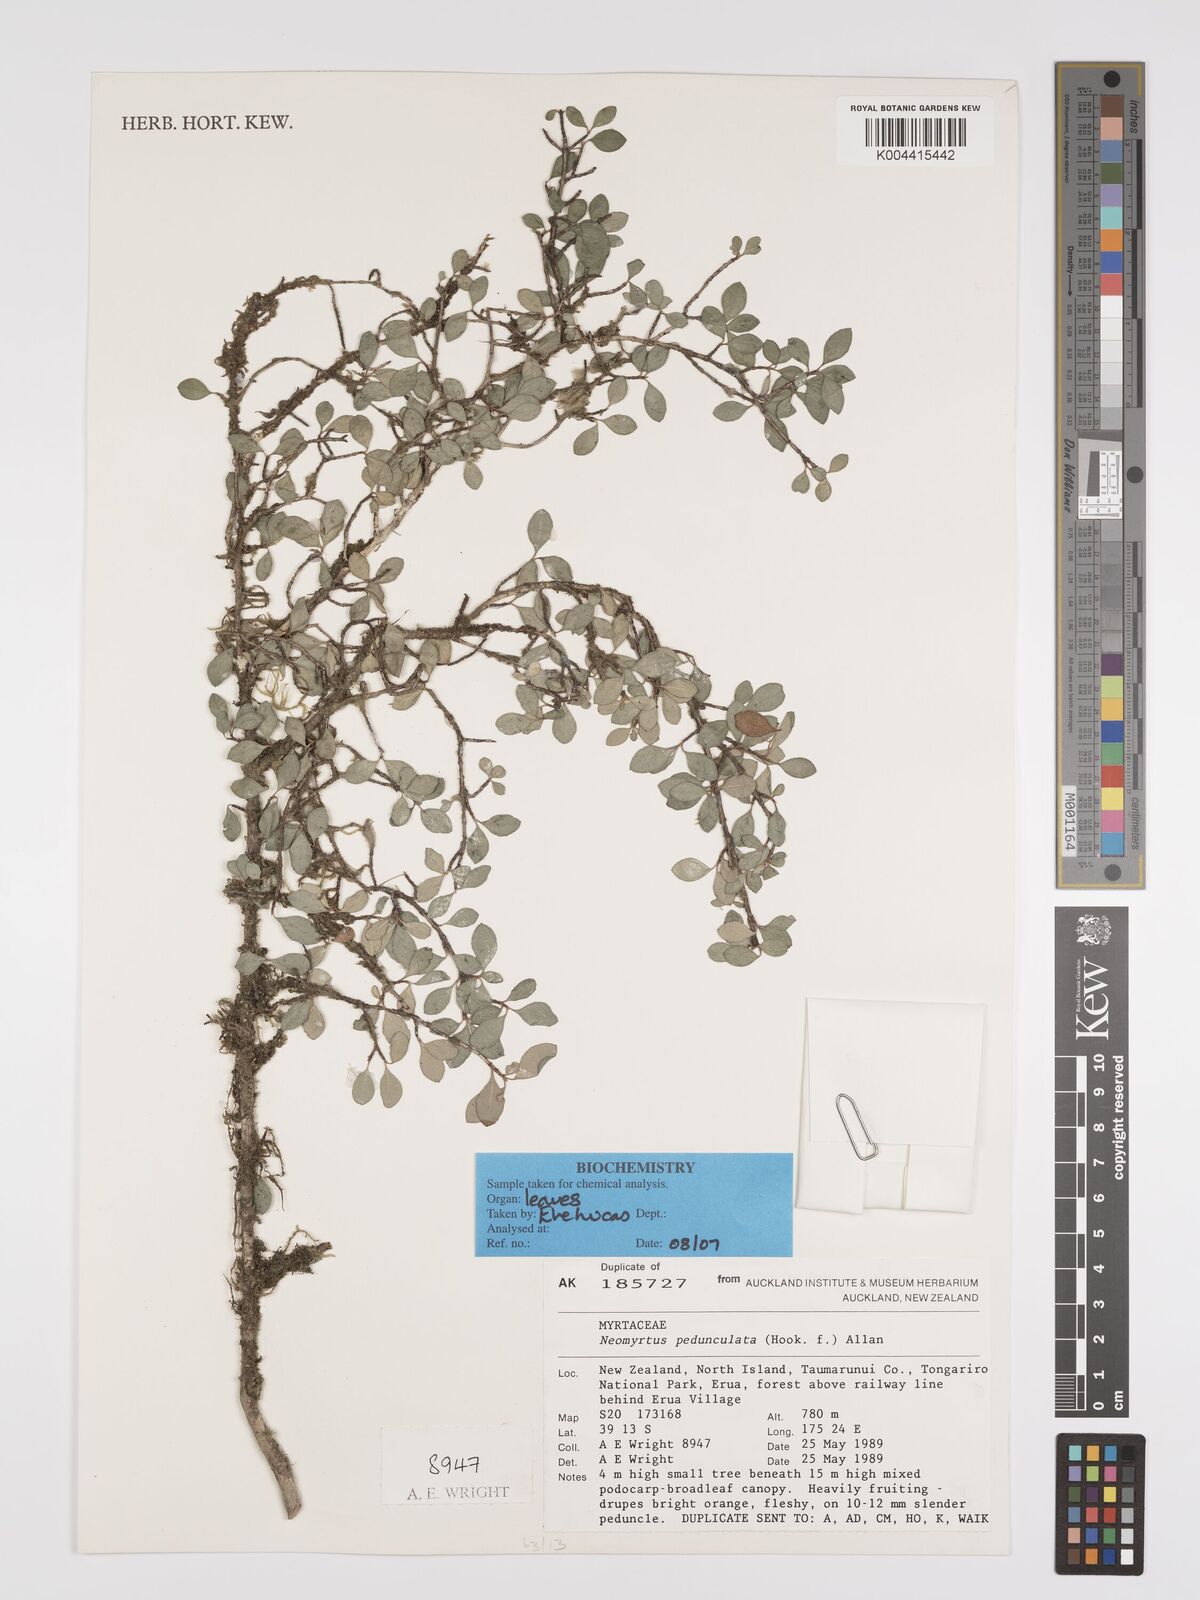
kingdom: Plantae
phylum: Tracheophyta
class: Magnoliopsida
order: Myrtales
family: Myrtaceae
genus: Neomyrtus
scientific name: Neomyrtus pedunculata
